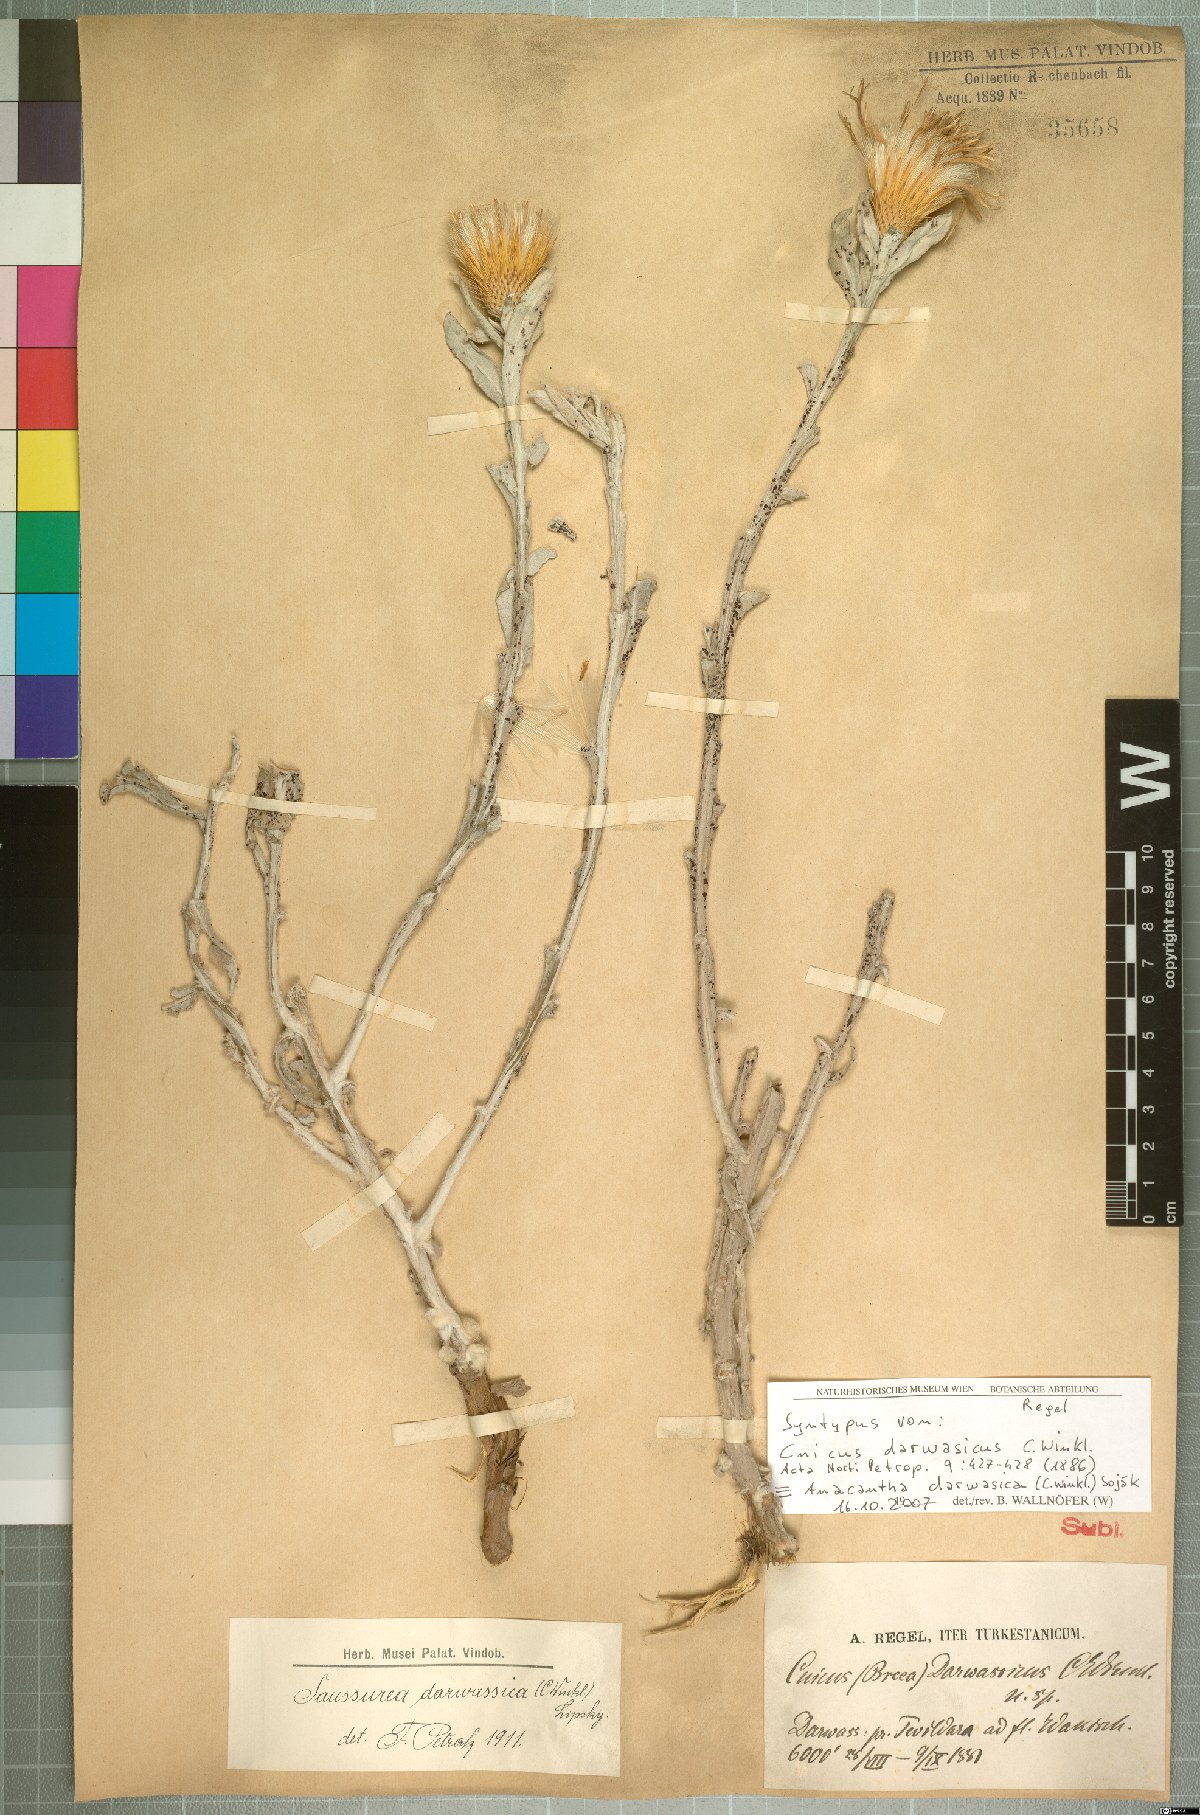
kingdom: Plantae
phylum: Tracheophyta
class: Magnoliopsida
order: Asterales
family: Asteraceae
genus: Anacantha
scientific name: Anacantha darwasica
